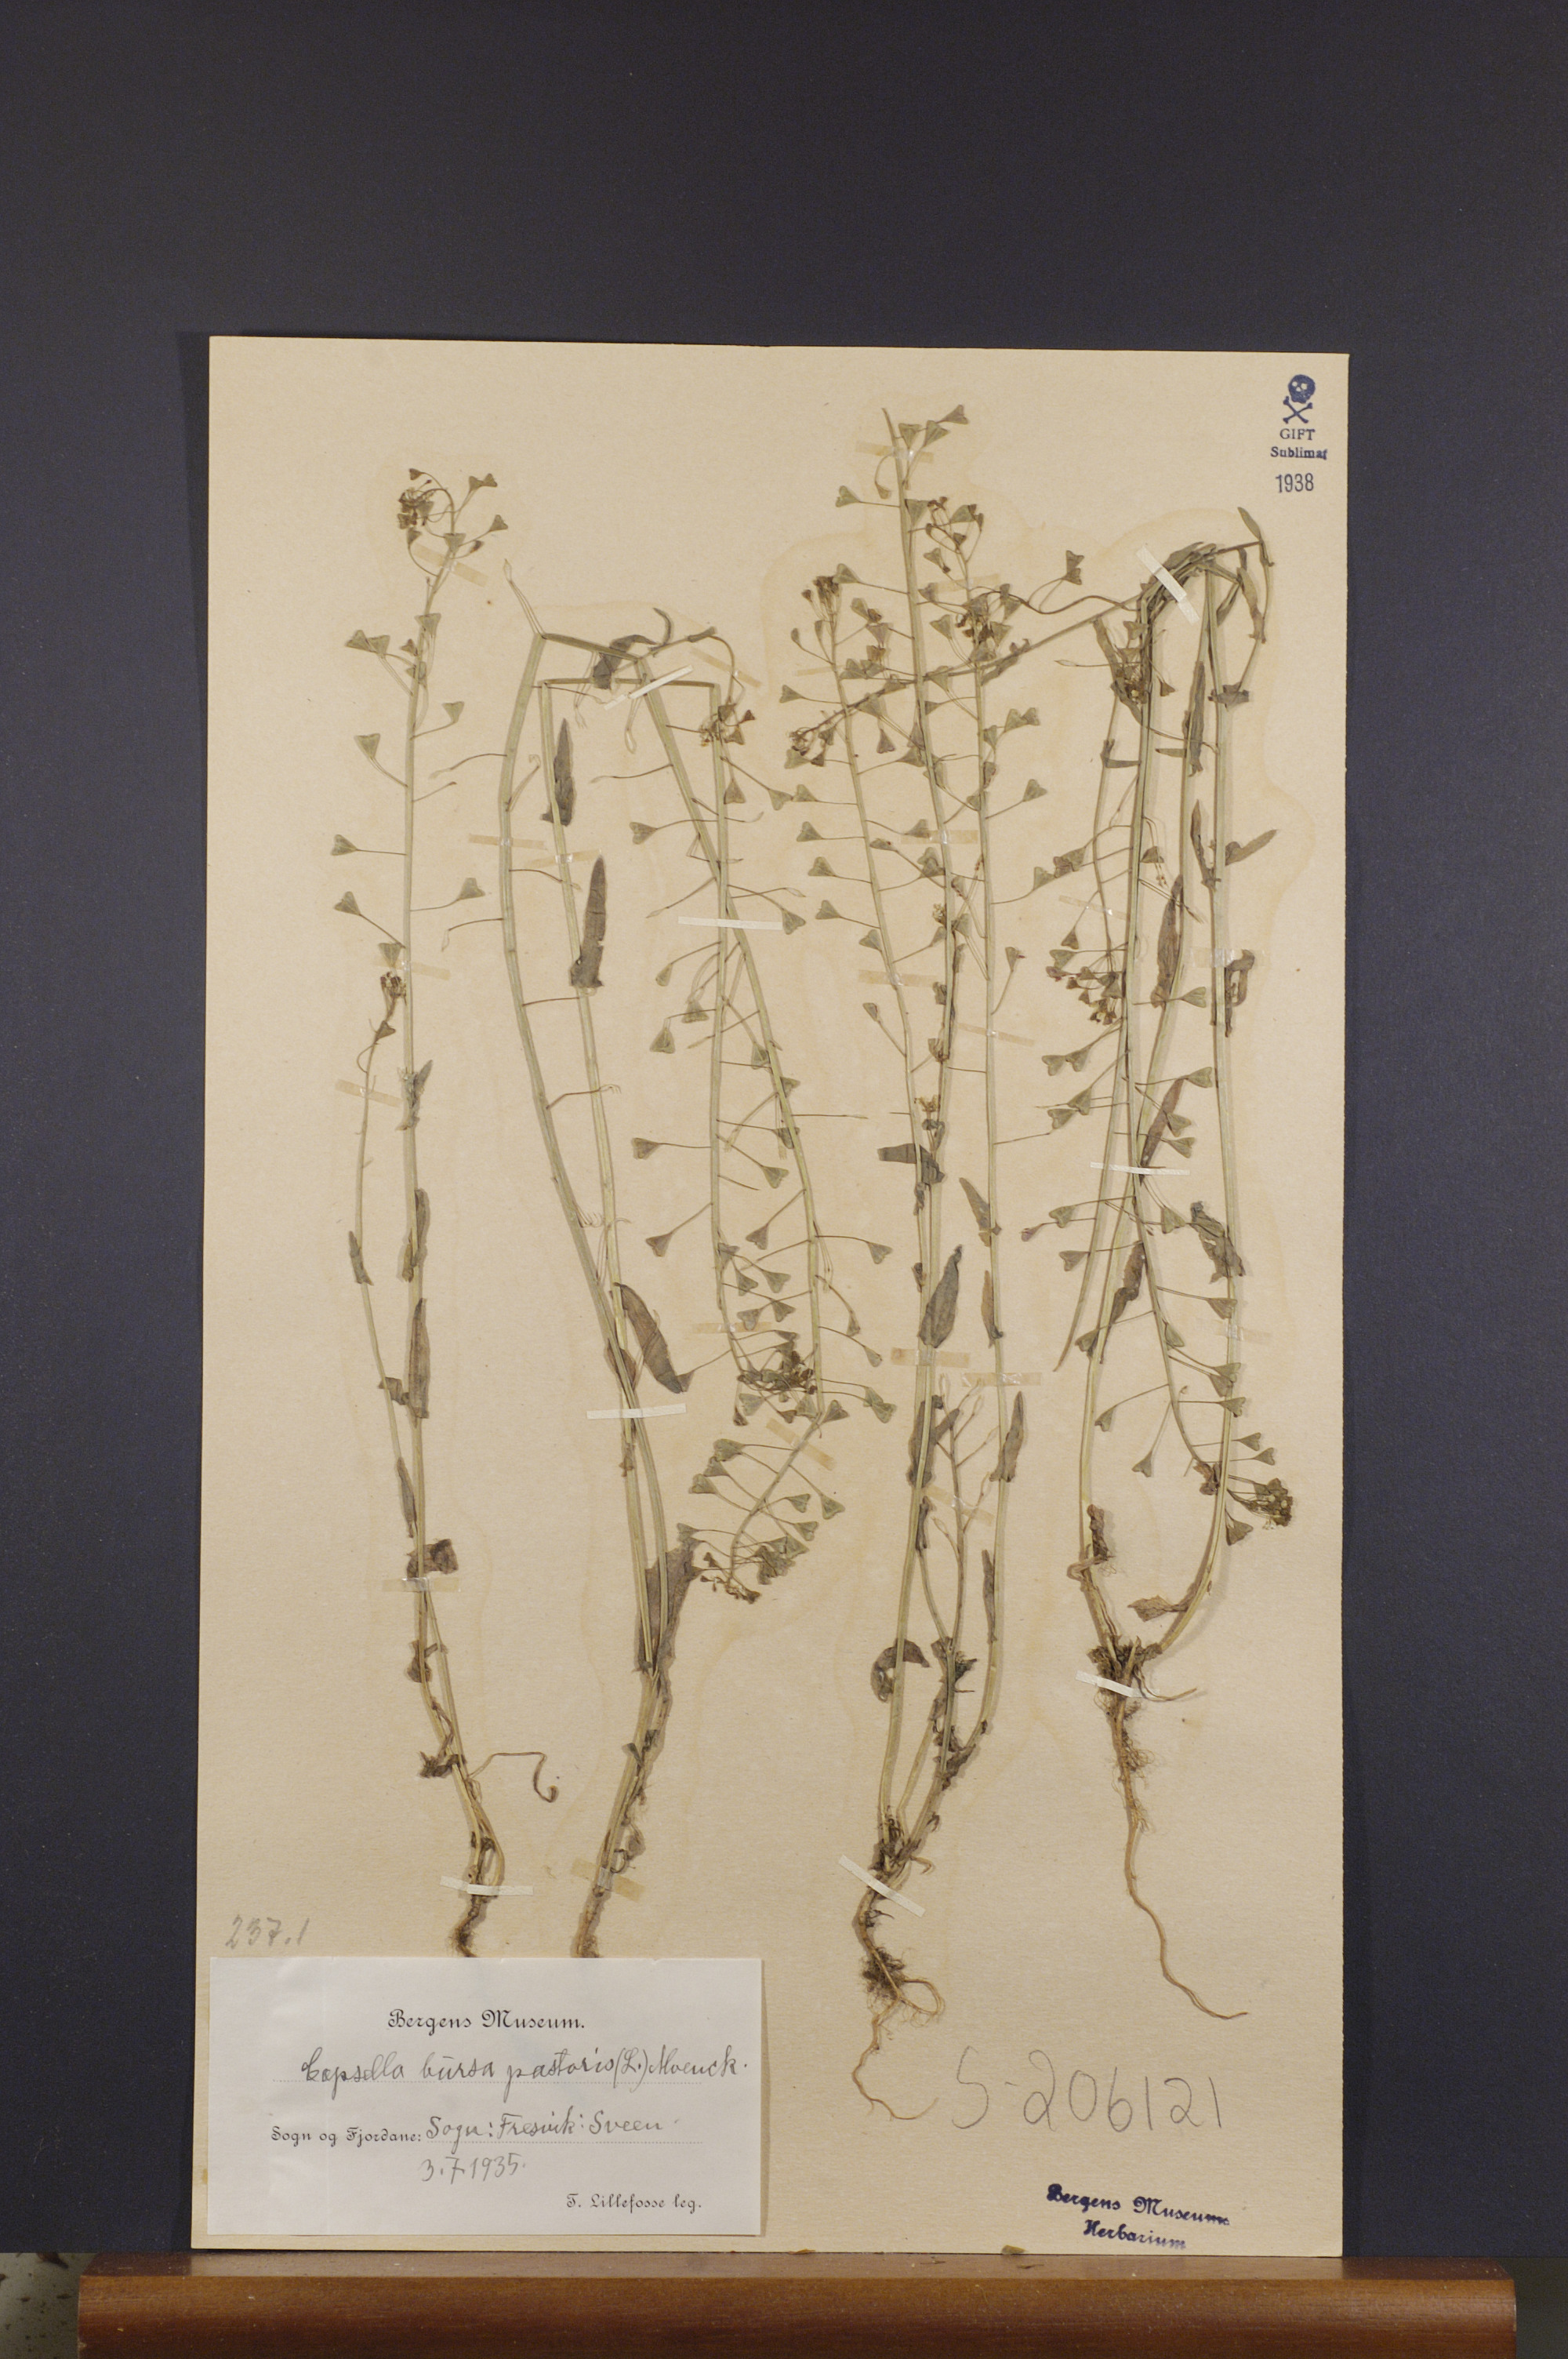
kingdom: Plantae
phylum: Tracheophyta
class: Magnoliopsida
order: Brassicales
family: Brassicaceae
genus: Capsella
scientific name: Capsella bursa-pastoris
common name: Shepherd's purse
